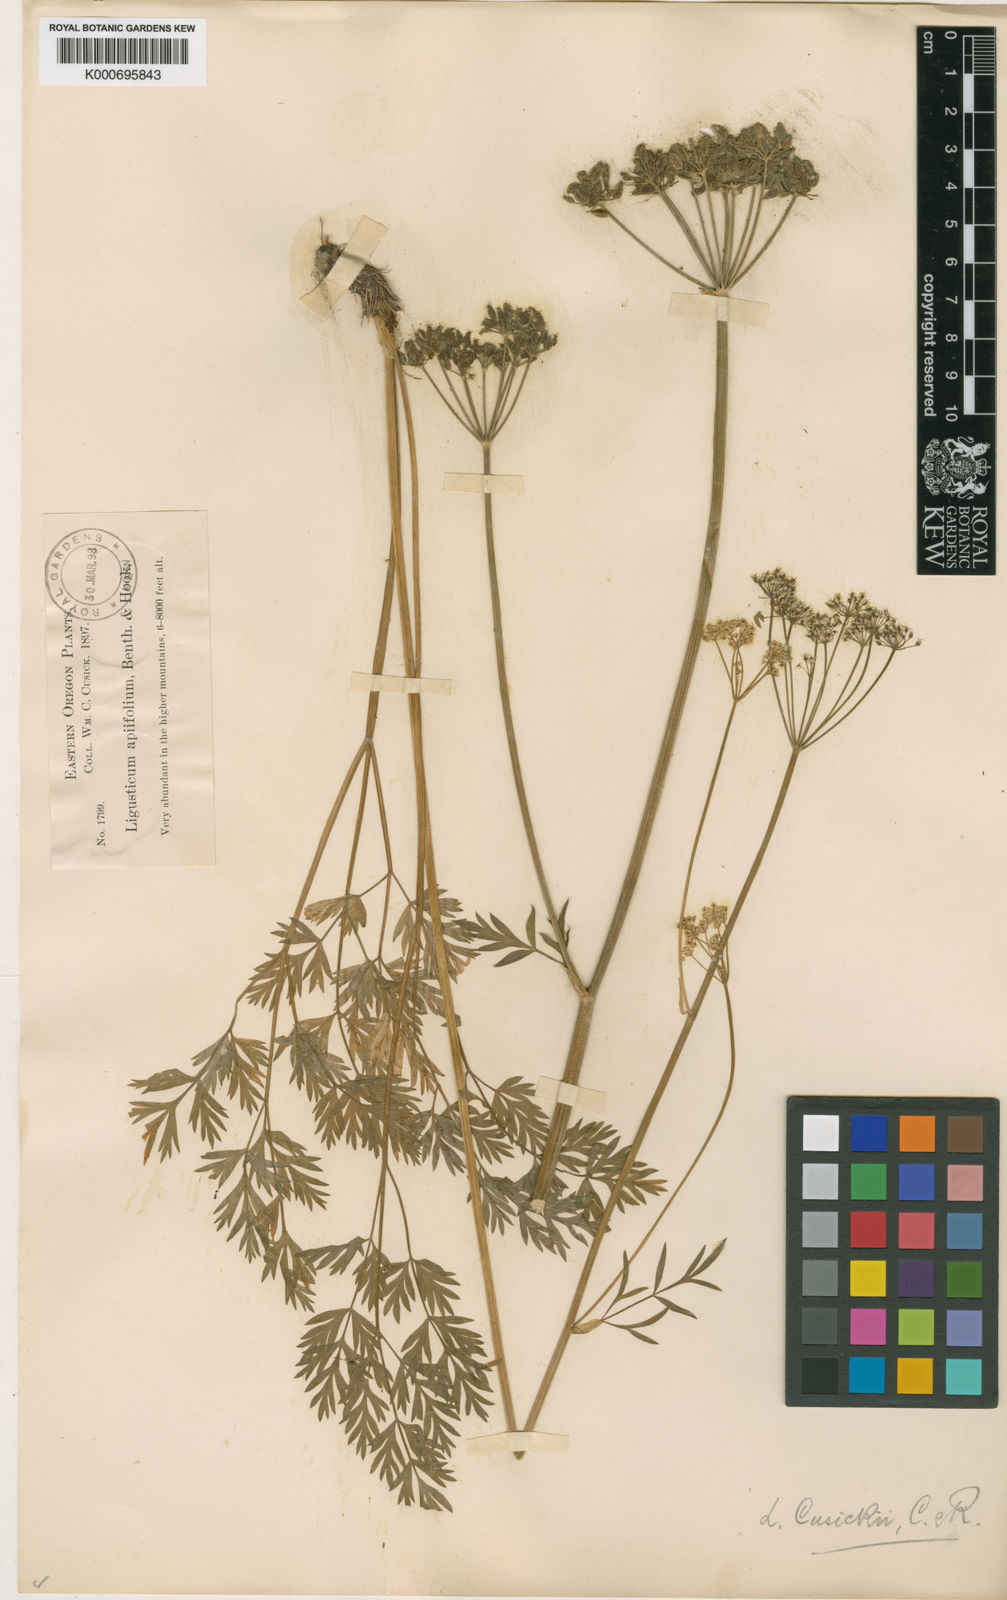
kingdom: Plantae
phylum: Tracheophyta
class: Magnoliopsida
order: Apiales
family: Apiaceae
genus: Ligusticum
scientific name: Ligusticum grayi
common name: Gray's licorice-root
